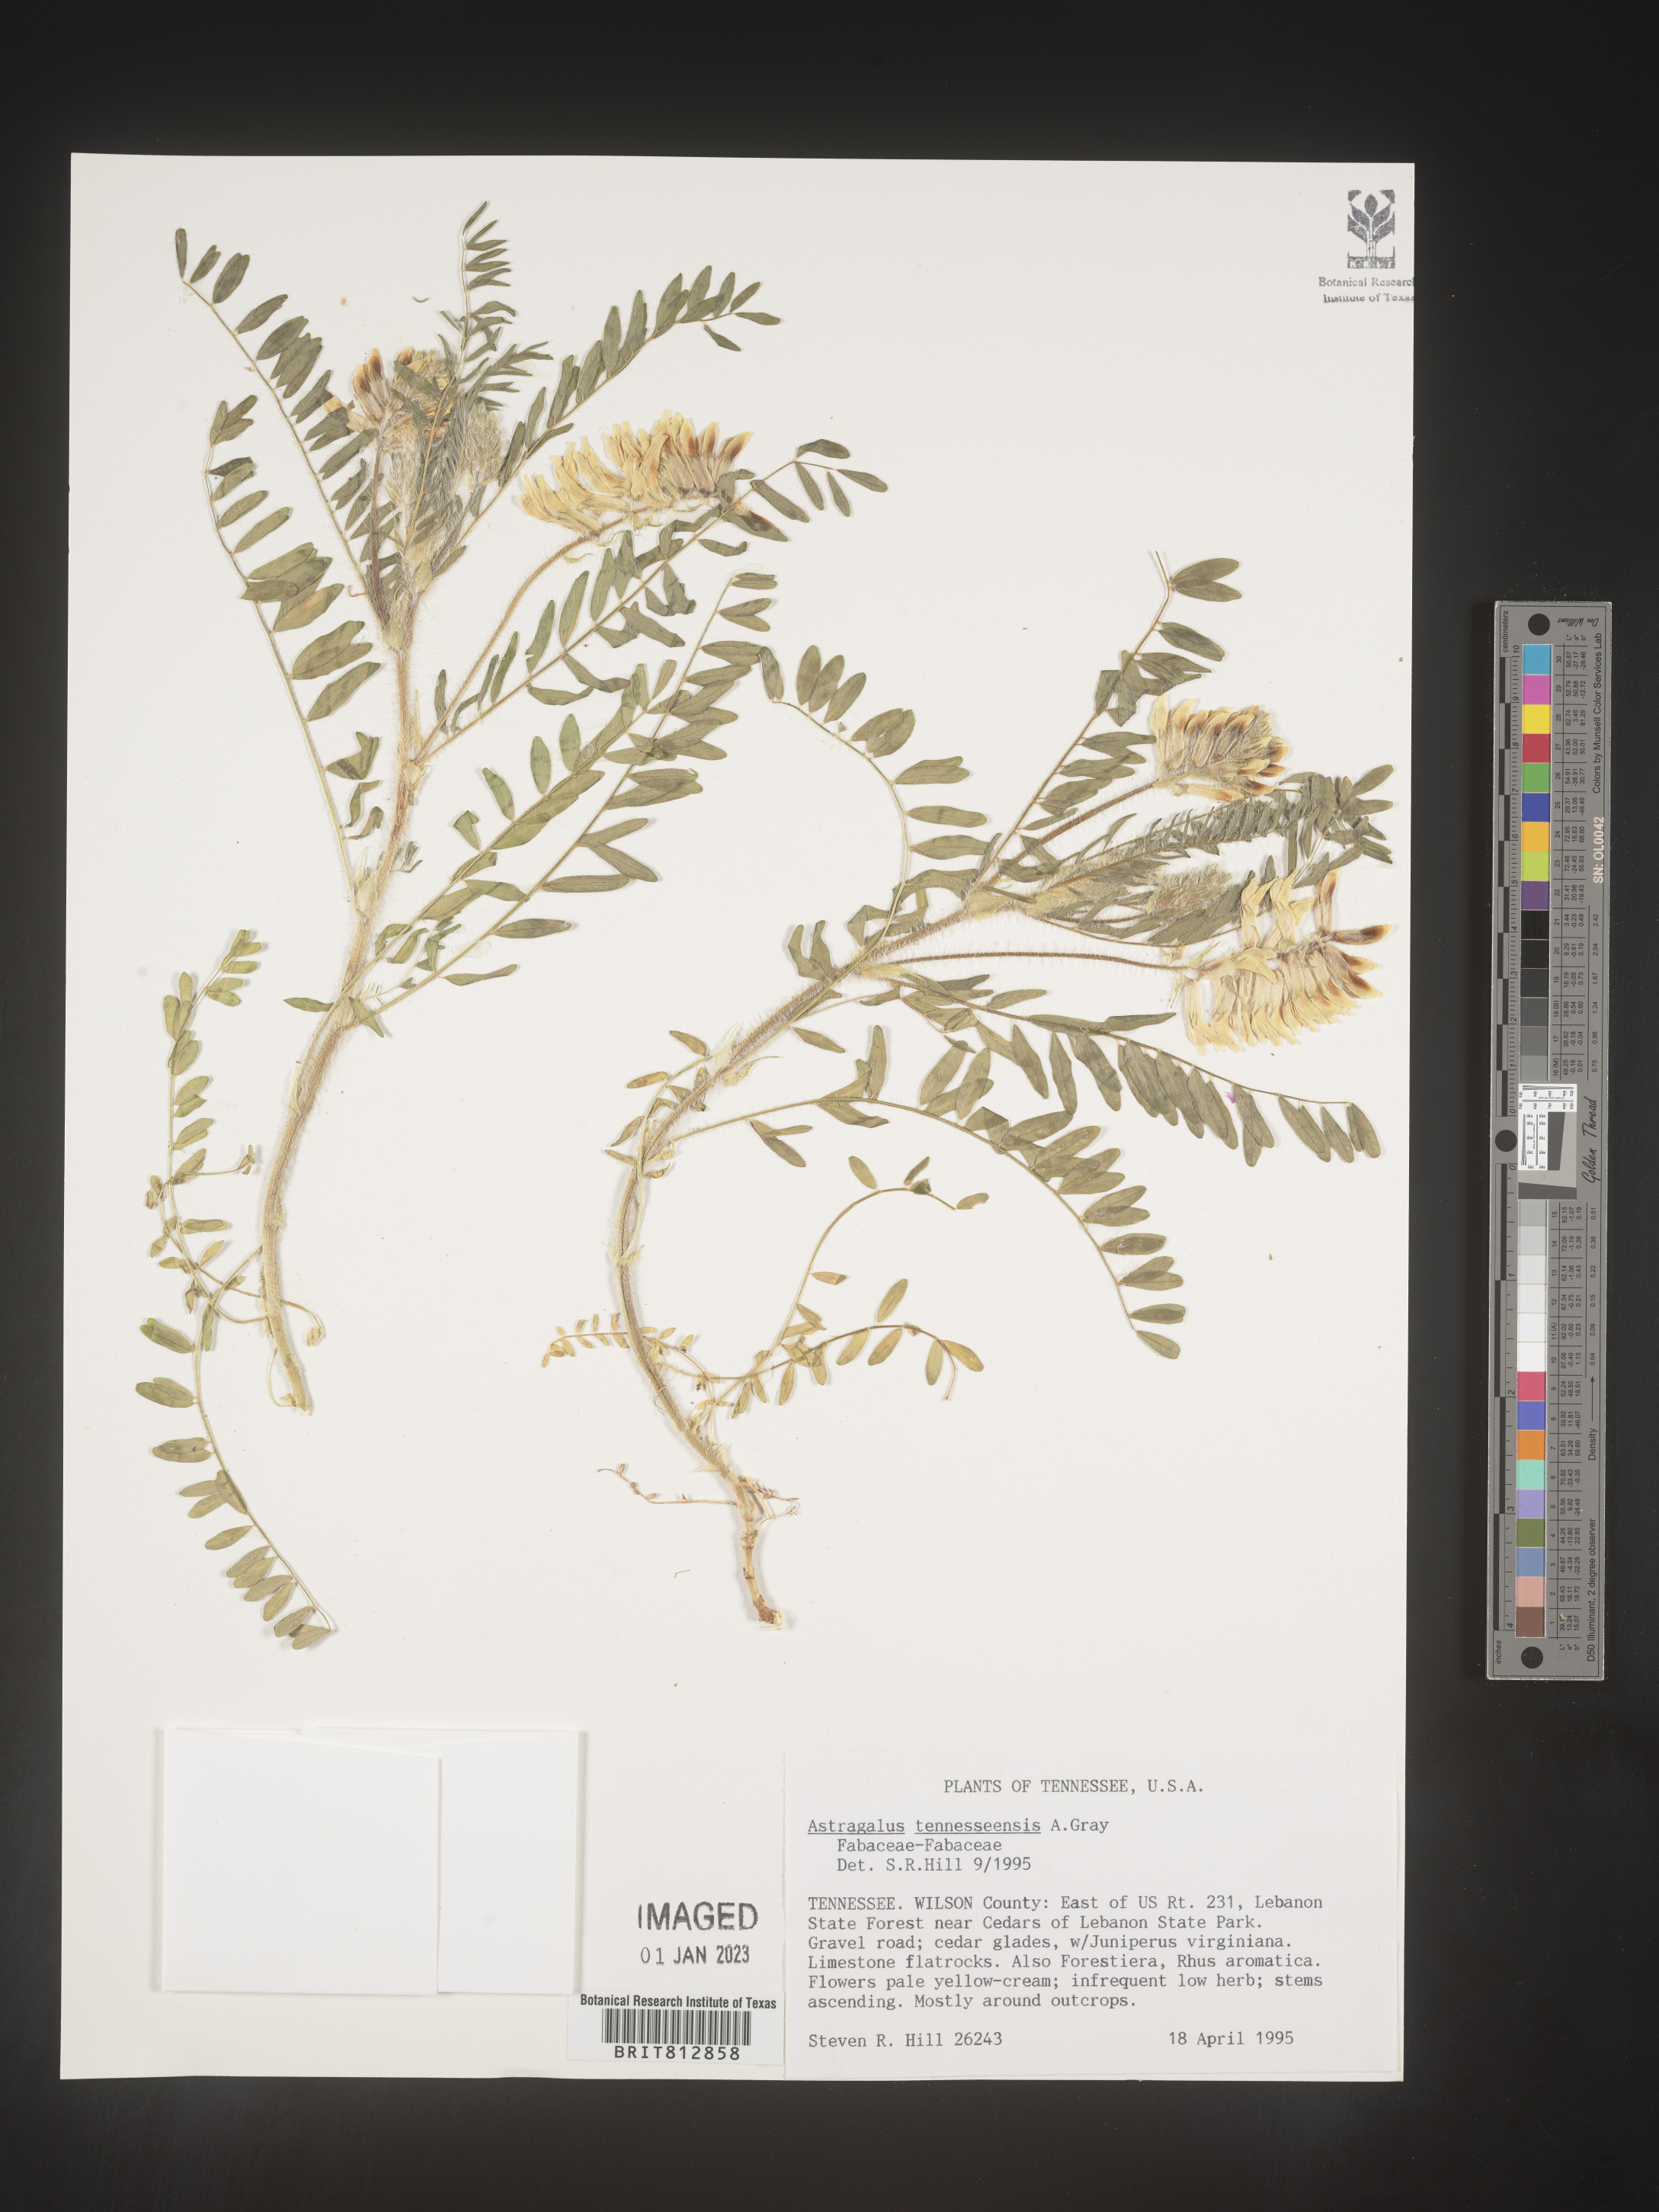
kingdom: Plantae
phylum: Tracheophyta
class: Magnoliopsida
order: Fabales
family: Fabaceae
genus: Astragalus
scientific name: Astragalus
